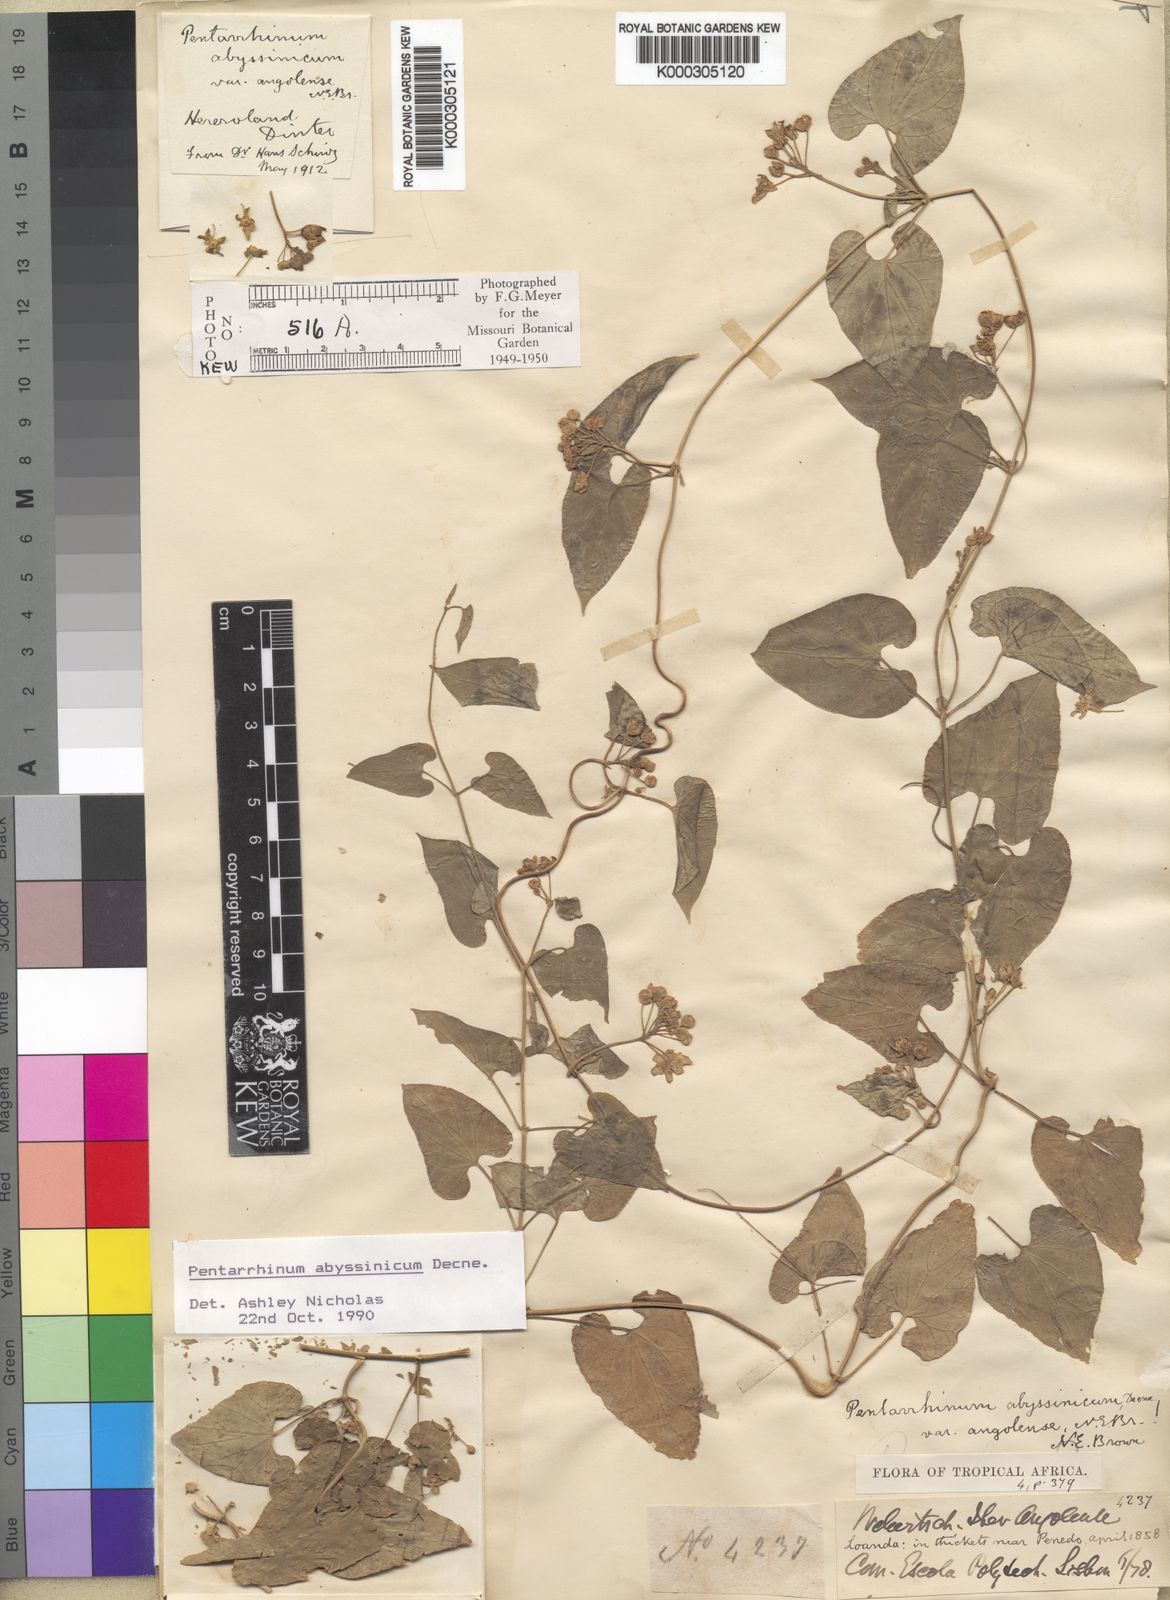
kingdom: Plantae
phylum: Tracheophyta
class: Magnoliopsida
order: Gentianales
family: Apocynaceae
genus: Cynanchum
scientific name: Cynanchum ethiopicum
